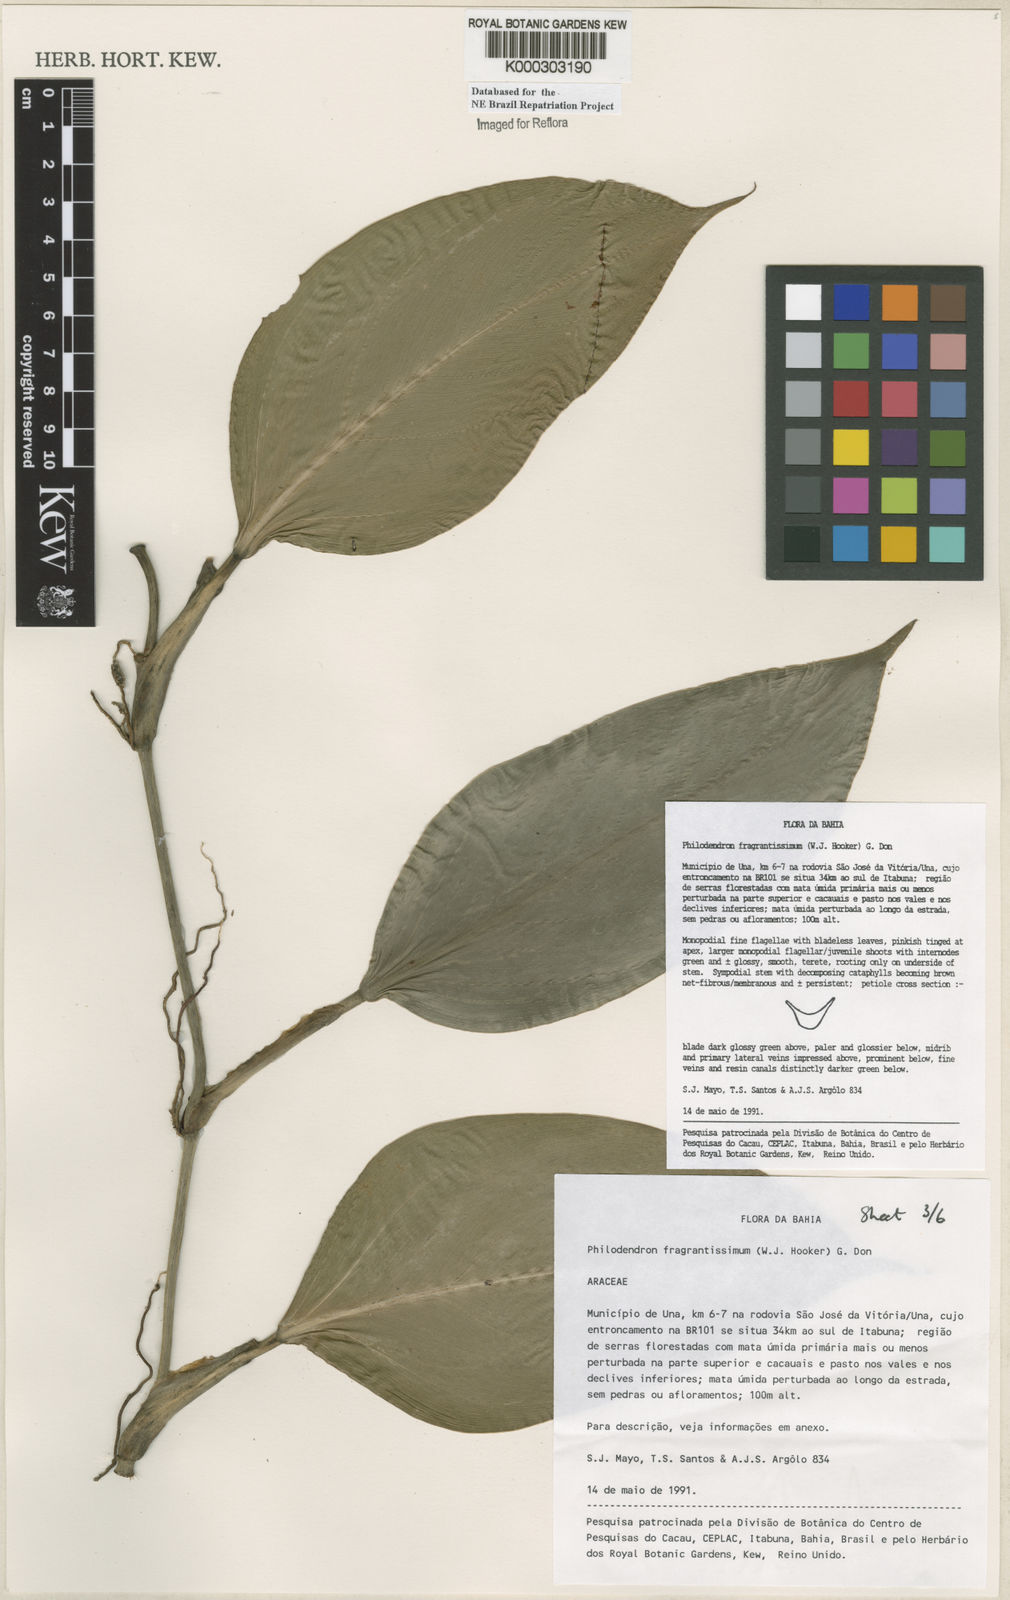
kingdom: Plantae
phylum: Tracheophyta
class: Liliopsida
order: Alismatales
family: Araceae
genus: Philodendron
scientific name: Philodendron fragrantissimum
